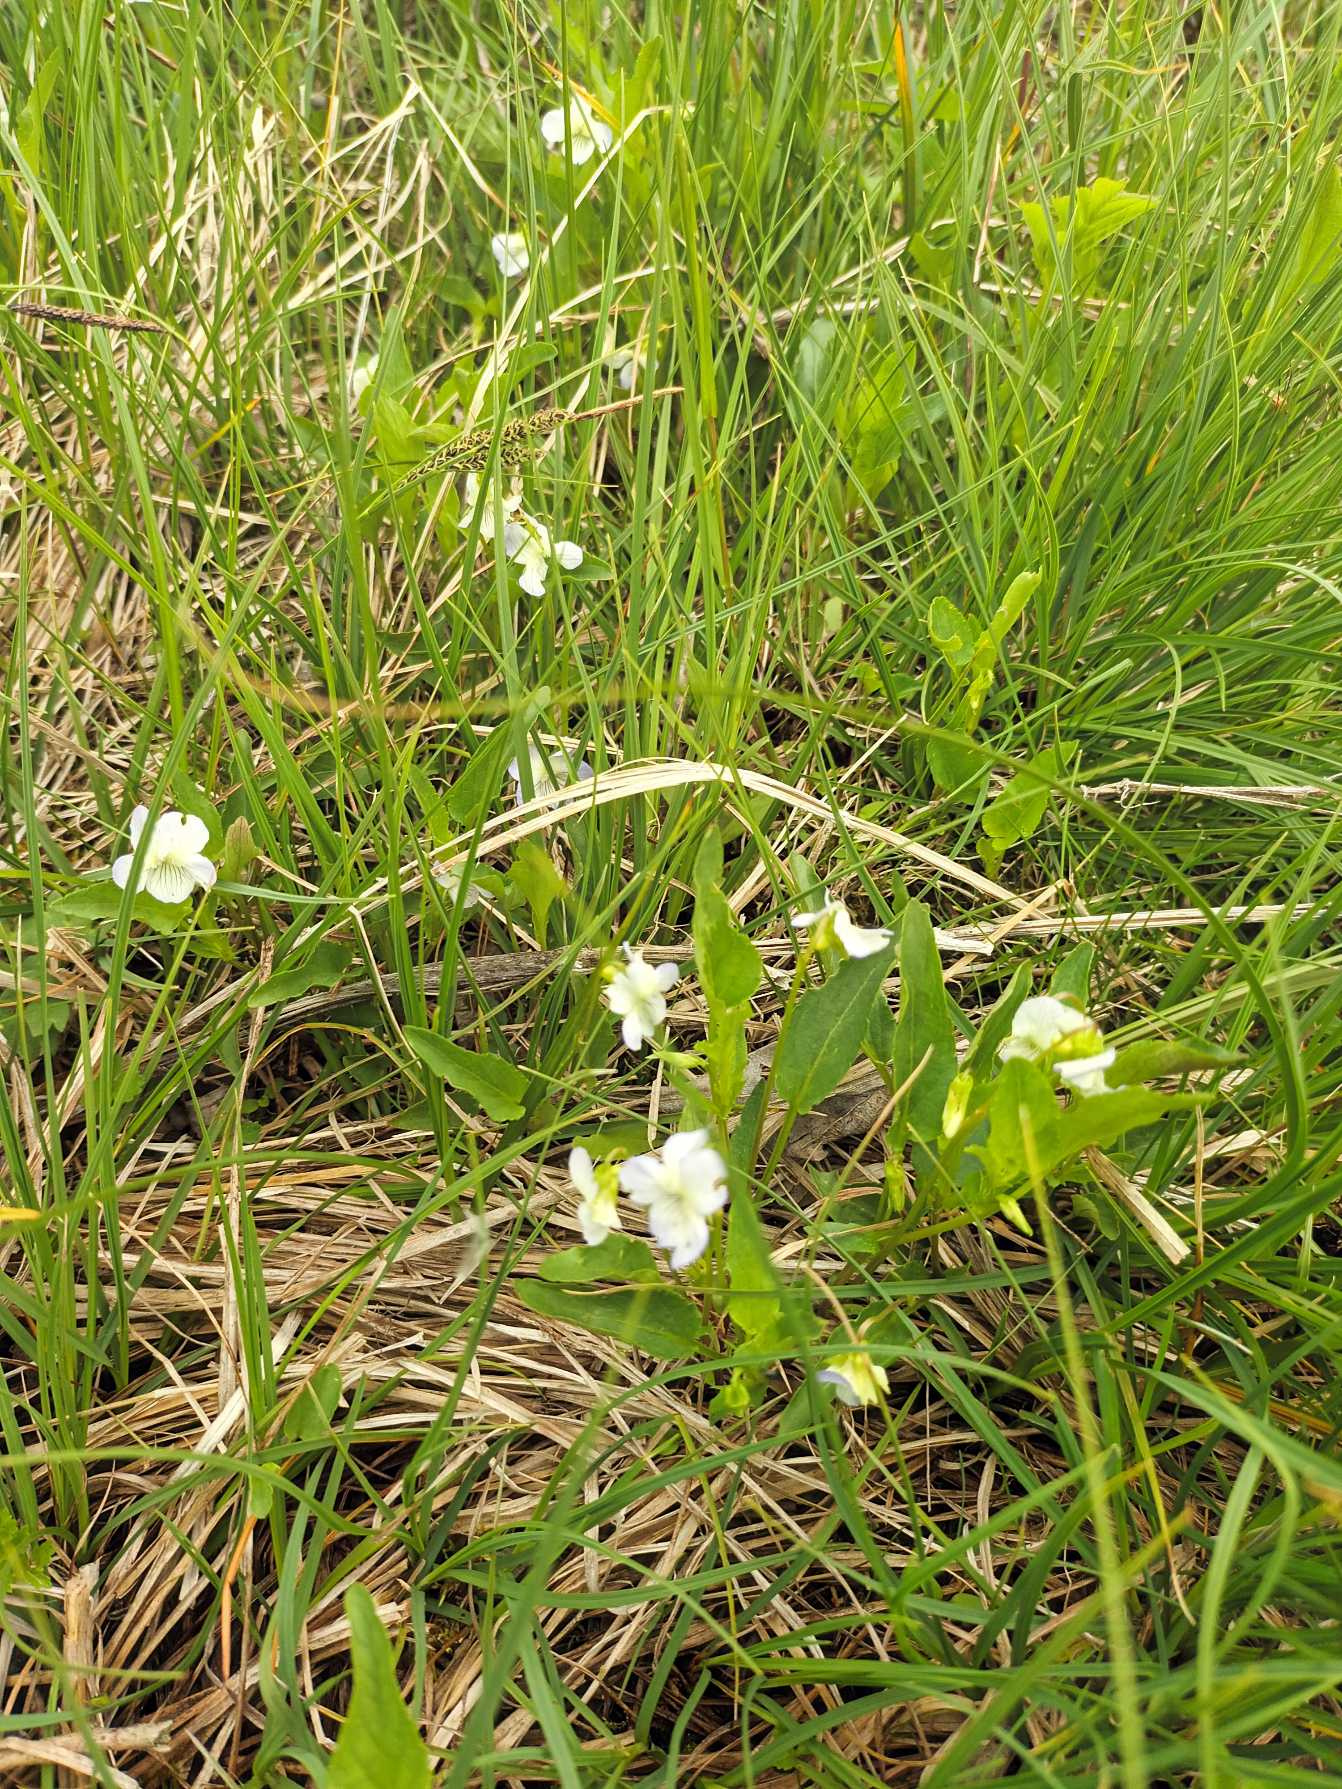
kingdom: Plantae
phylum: Tracheophyta
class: Magnoliopsida
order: Malpighiales
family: Violaceae
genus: Viola
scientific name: Viola stagnina
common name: Rank viol
